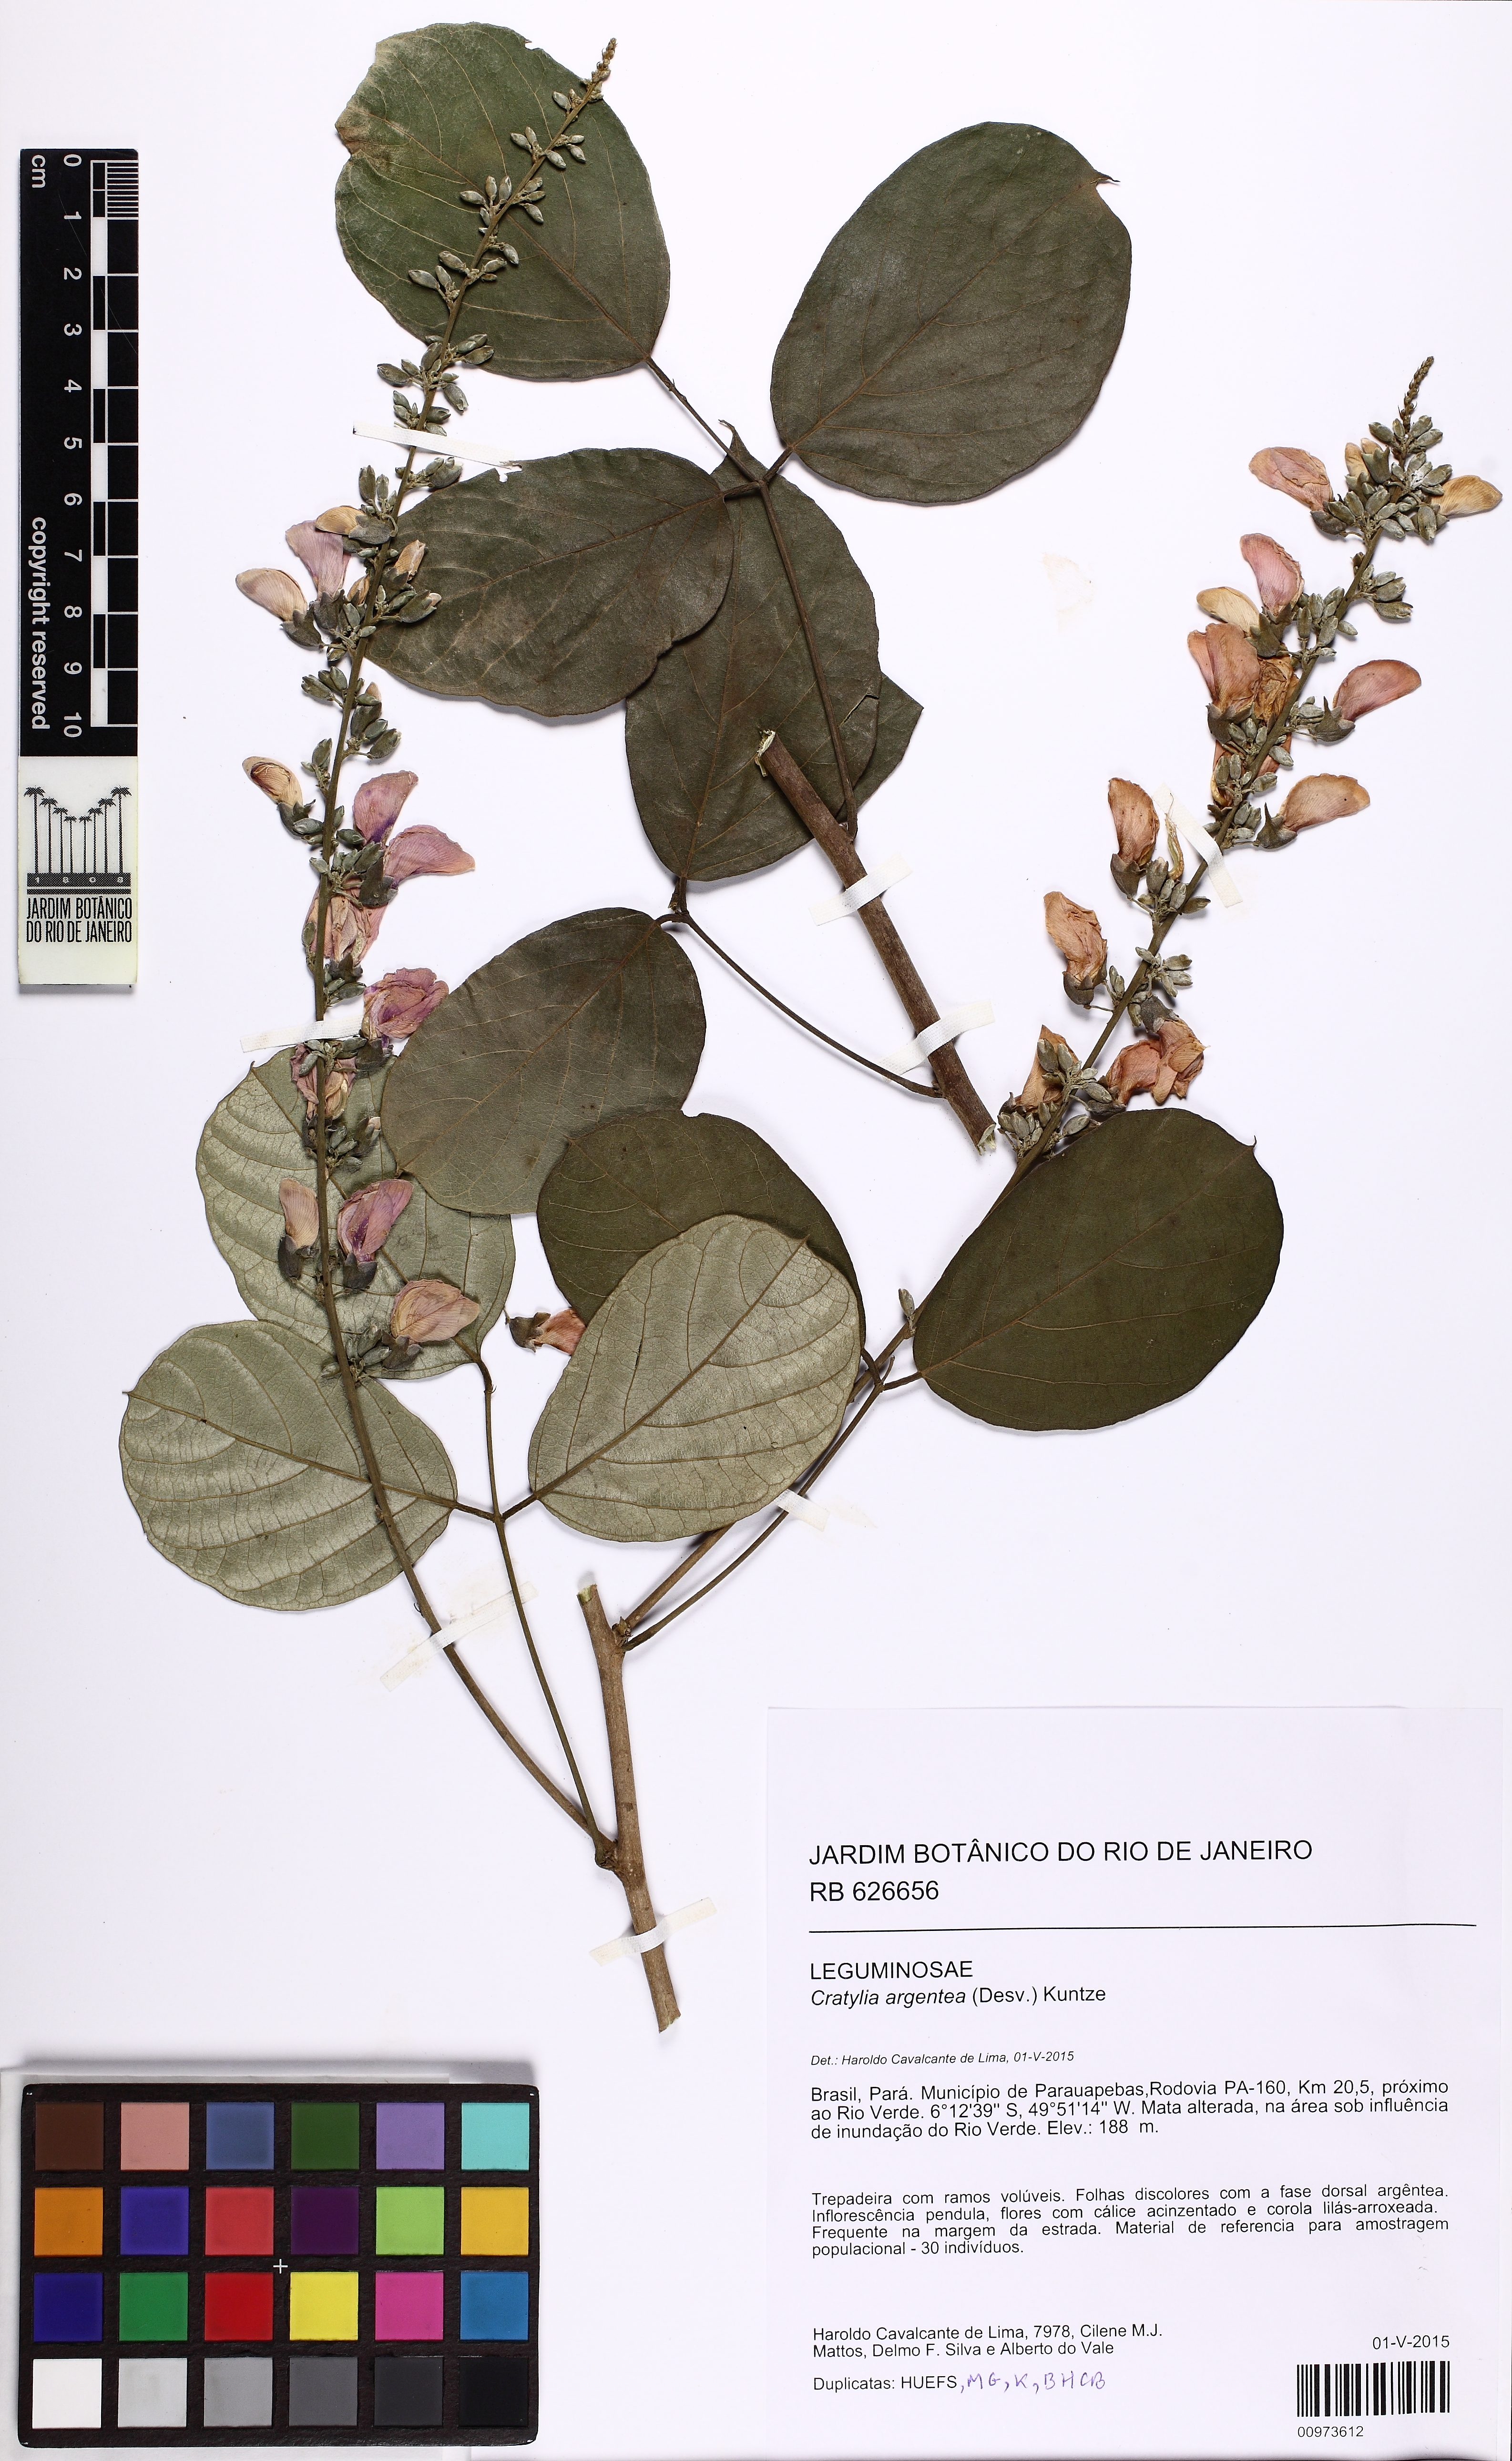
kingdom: Plantae
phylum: Tracheophyta
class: Magnoliopsida
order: Fabales
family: Fabaceae
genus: Cratylia
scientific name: Cratylia argentea
